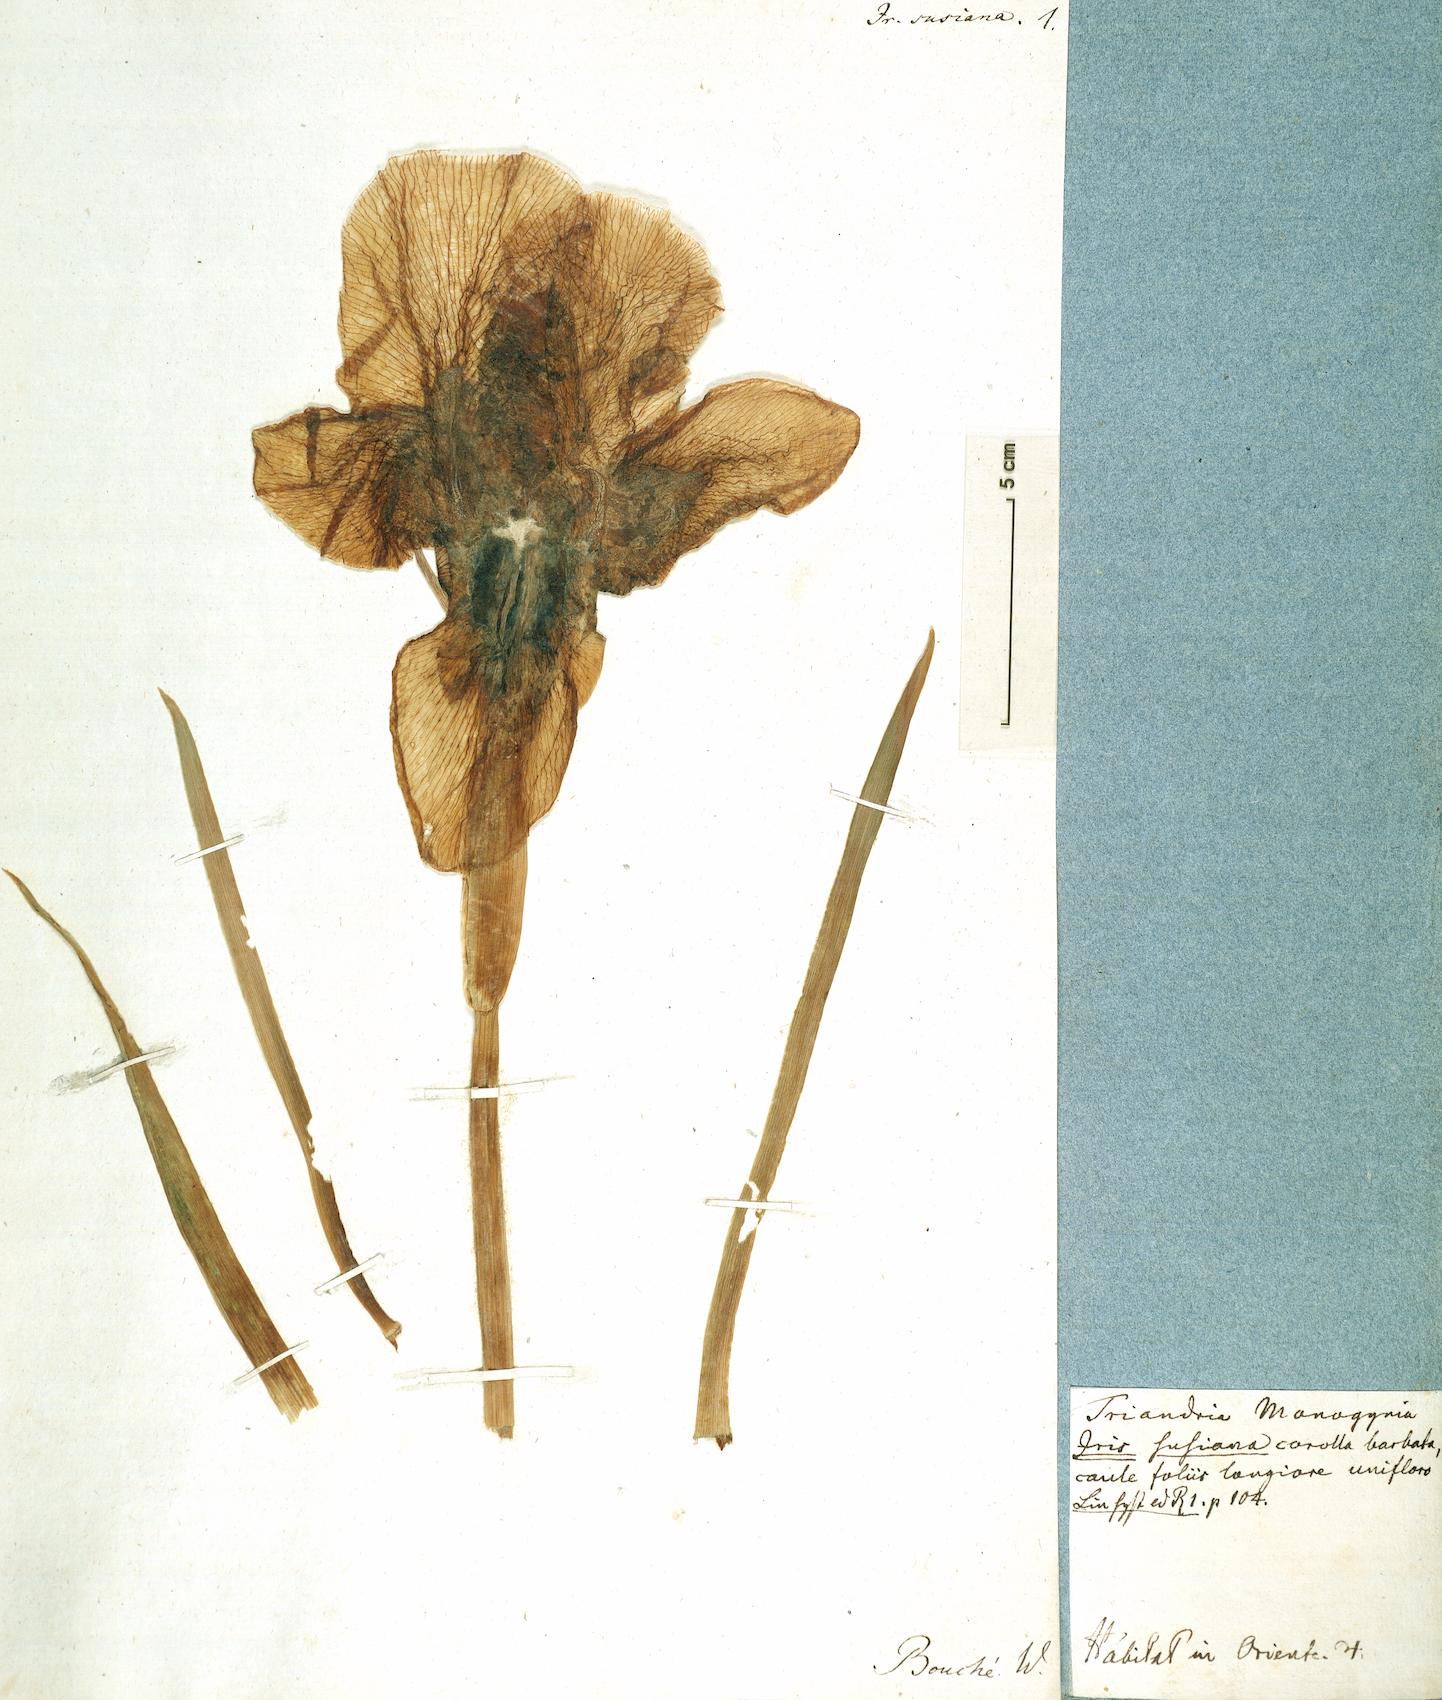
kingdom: Plantae
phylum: Tracheophyta
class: Liliopsida
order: Asparagales
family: Iridaceae
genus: Iris
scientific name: Iris susiana
